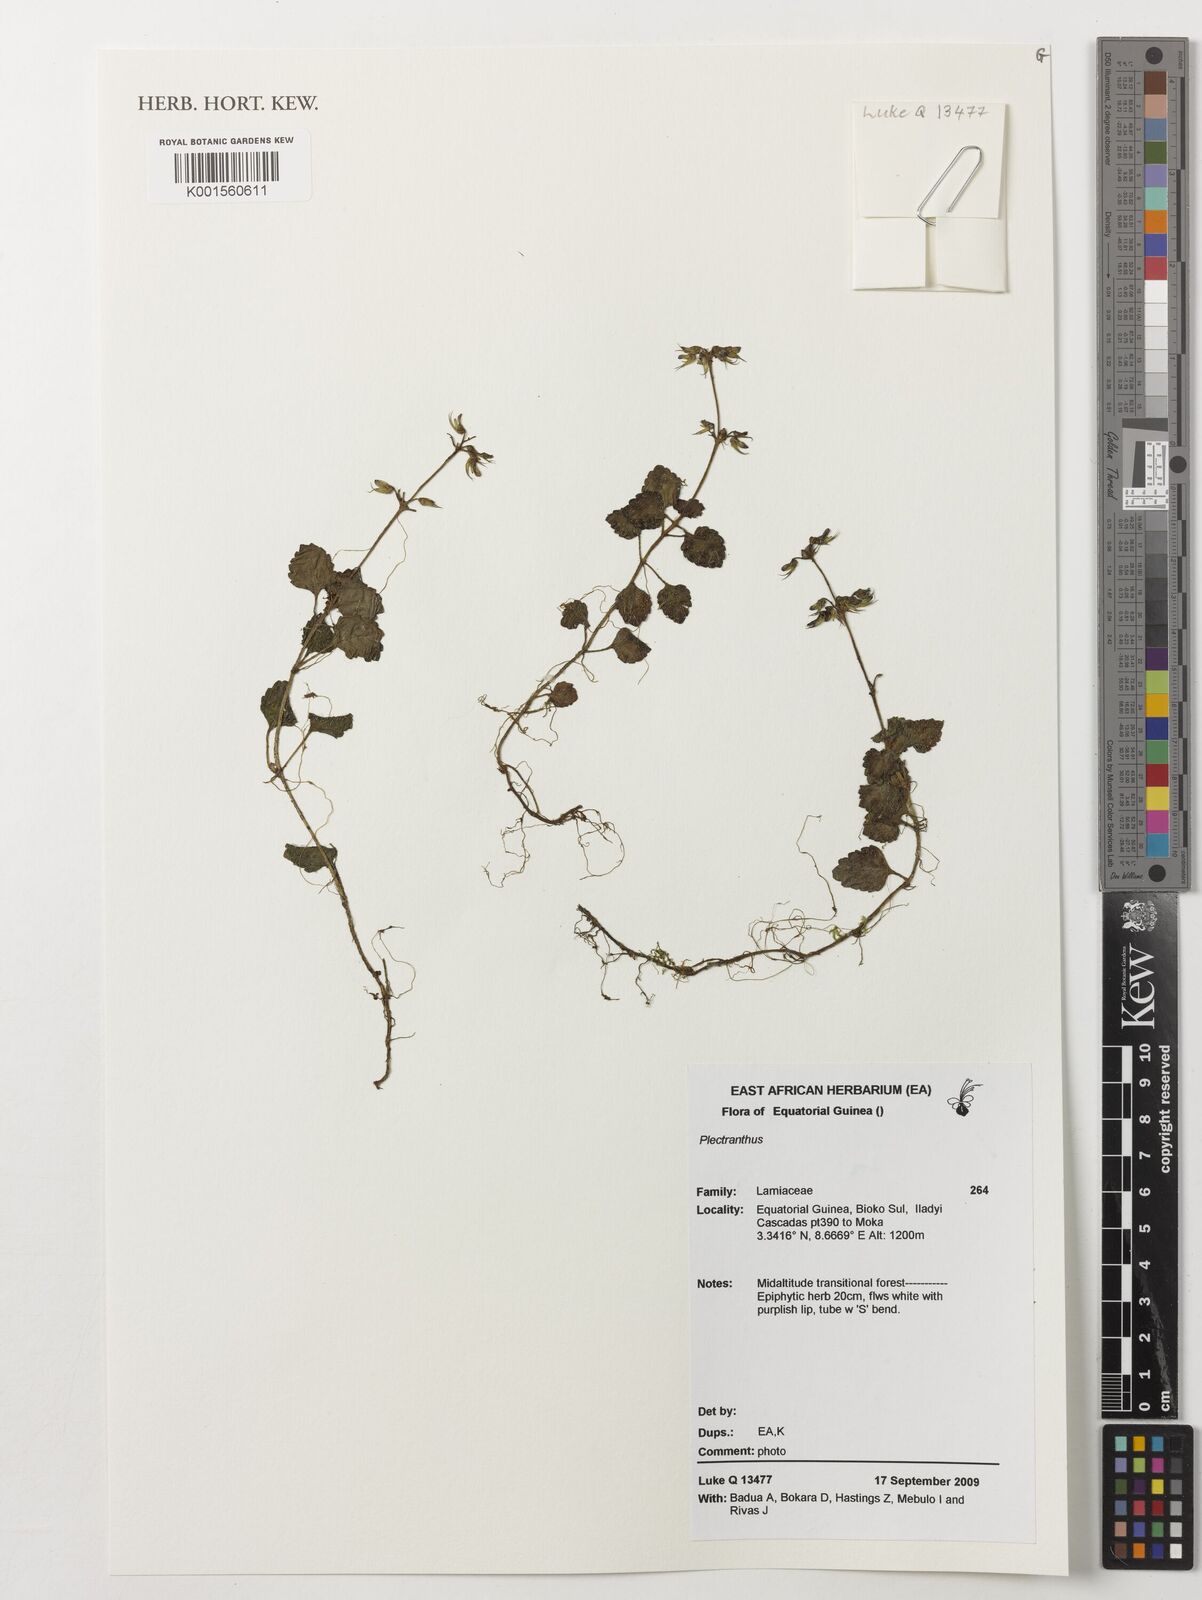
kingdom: Plantae
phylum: Tracheophyta
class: Magnoliopsida
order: Lamiales
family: Lamiaceae
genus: Plectranthus
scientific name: Plectranthus
